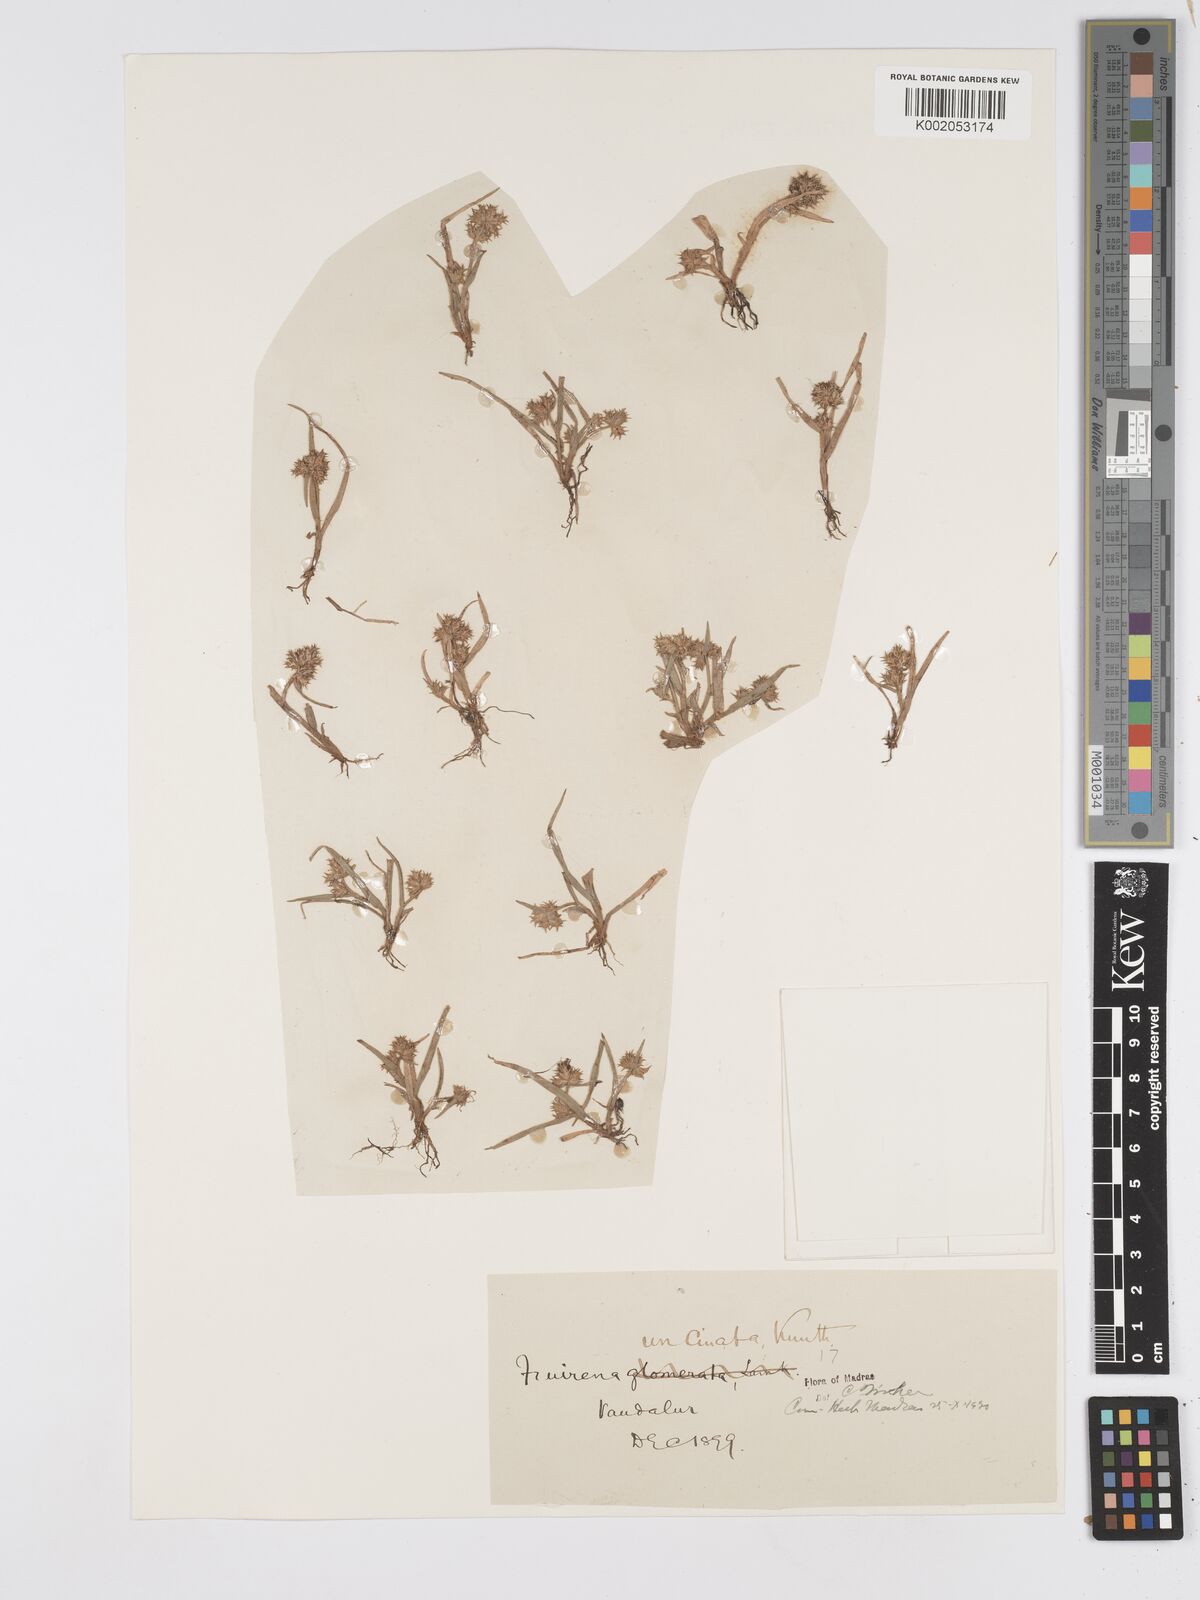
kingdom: Plantae
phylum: Tracheophyta
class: Liliopsida
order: Poales
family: Cyperaceae
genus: Fuirena
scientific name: Fuirena uncinata
